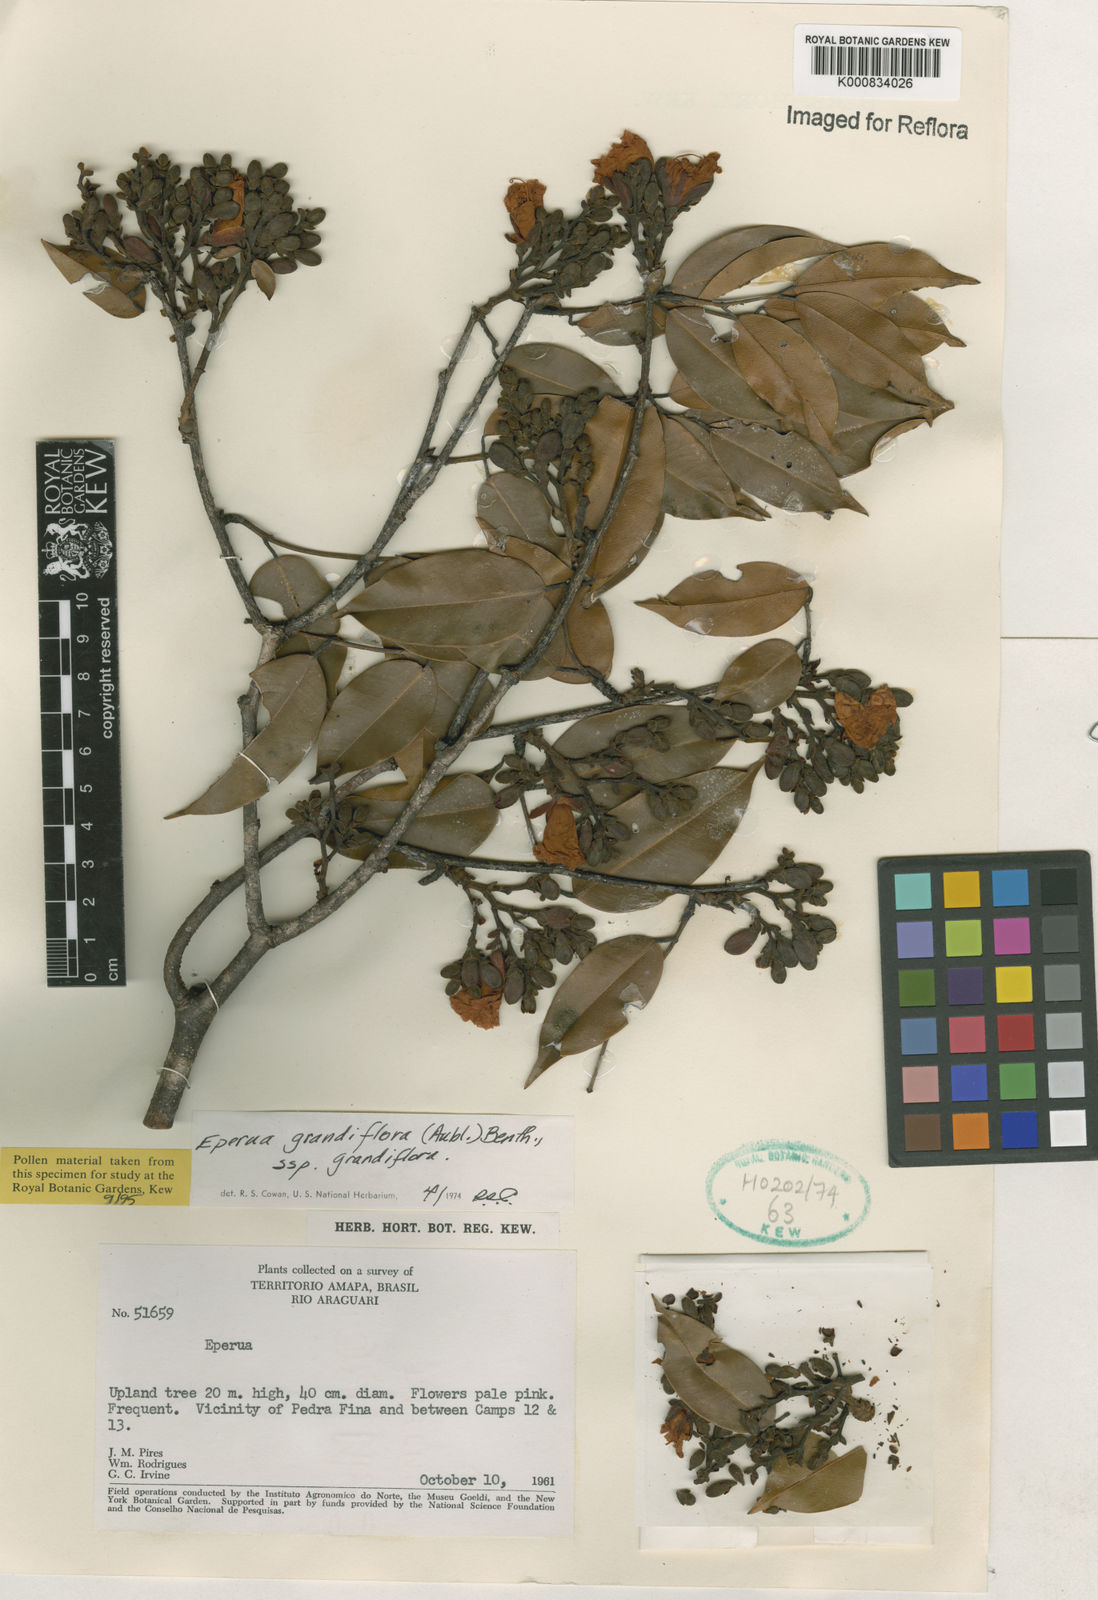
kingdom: Plantae
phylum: Tracheophyta
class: Magnoliopsida
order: Fabales
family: Fabaceae
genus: Eperua
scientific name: Eperua
